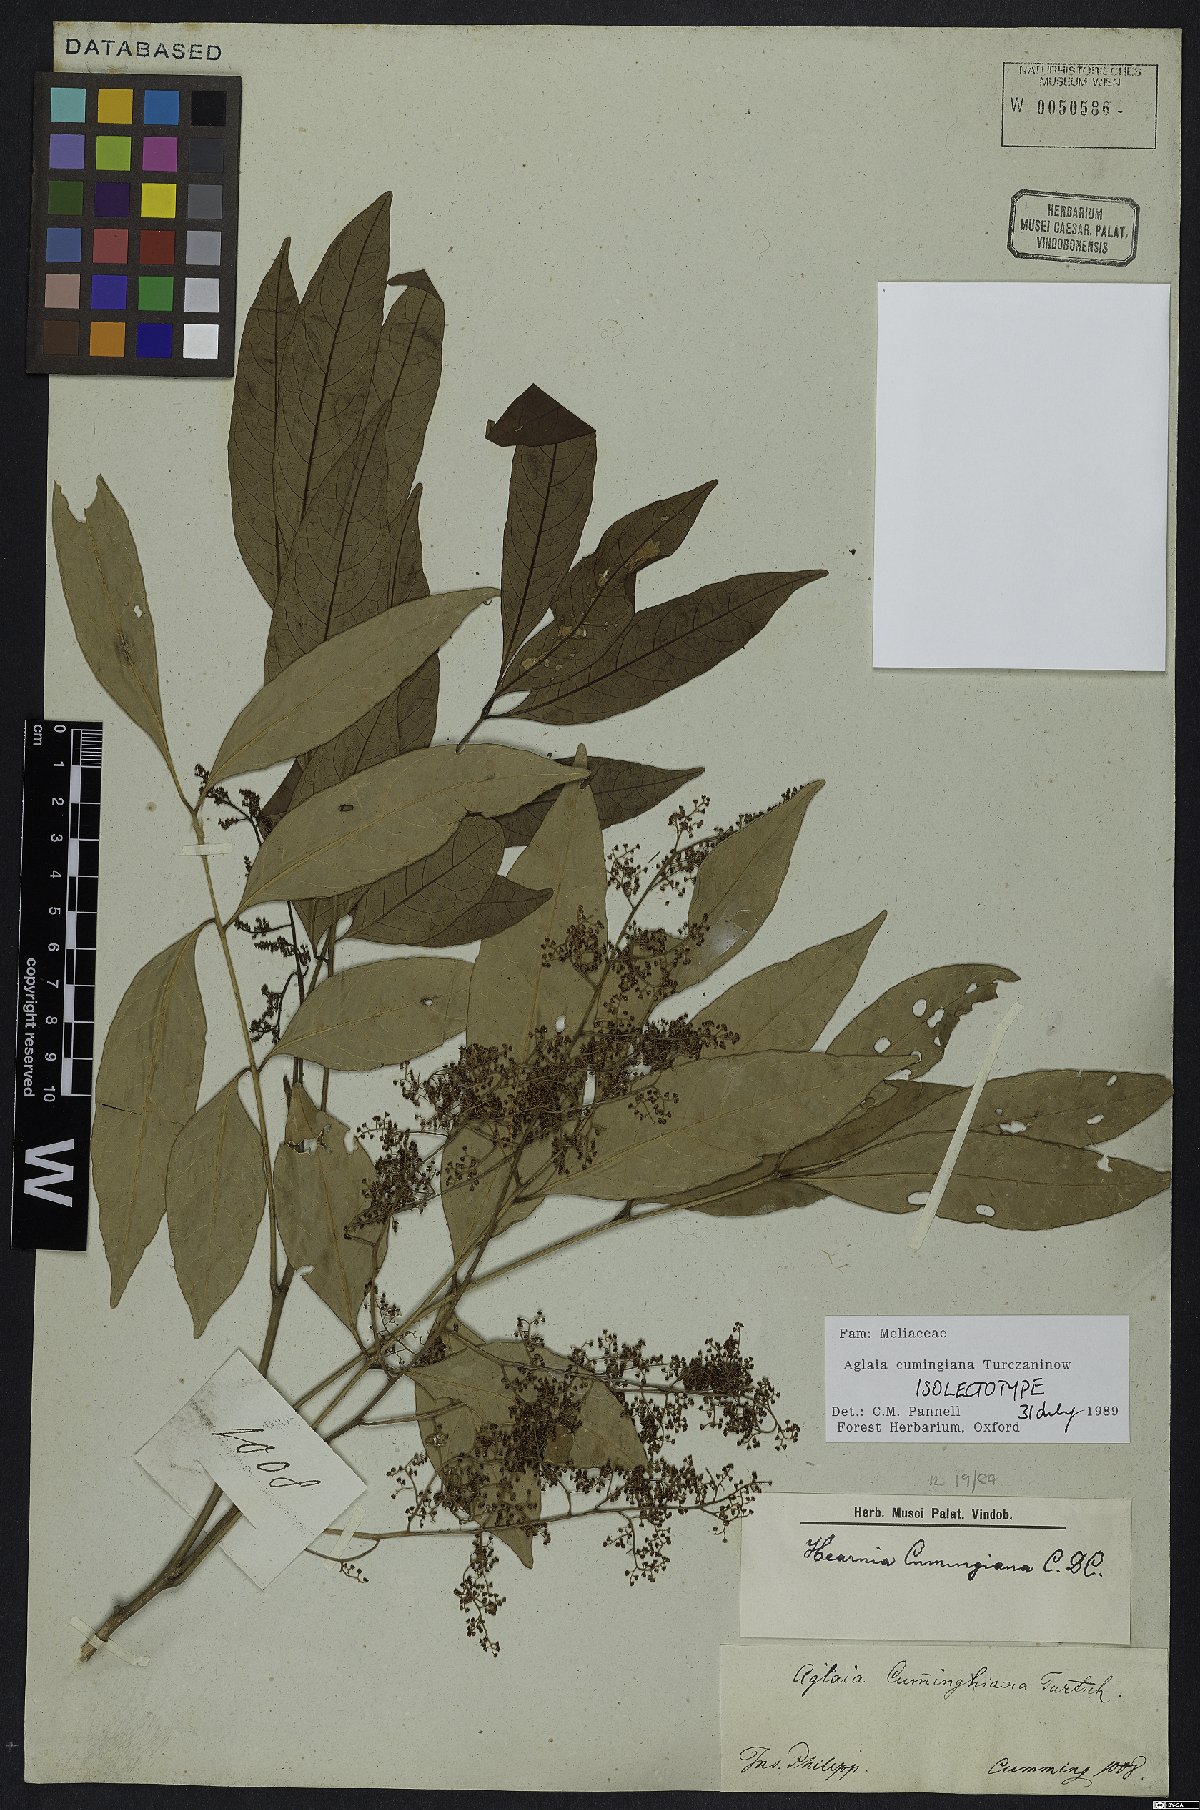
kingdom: Plantae
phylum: Tracheophyta
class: Magnoliopsida
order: Sapindales
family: Meliaceae
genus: Aglaia
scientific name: Aglaia cumingiana
